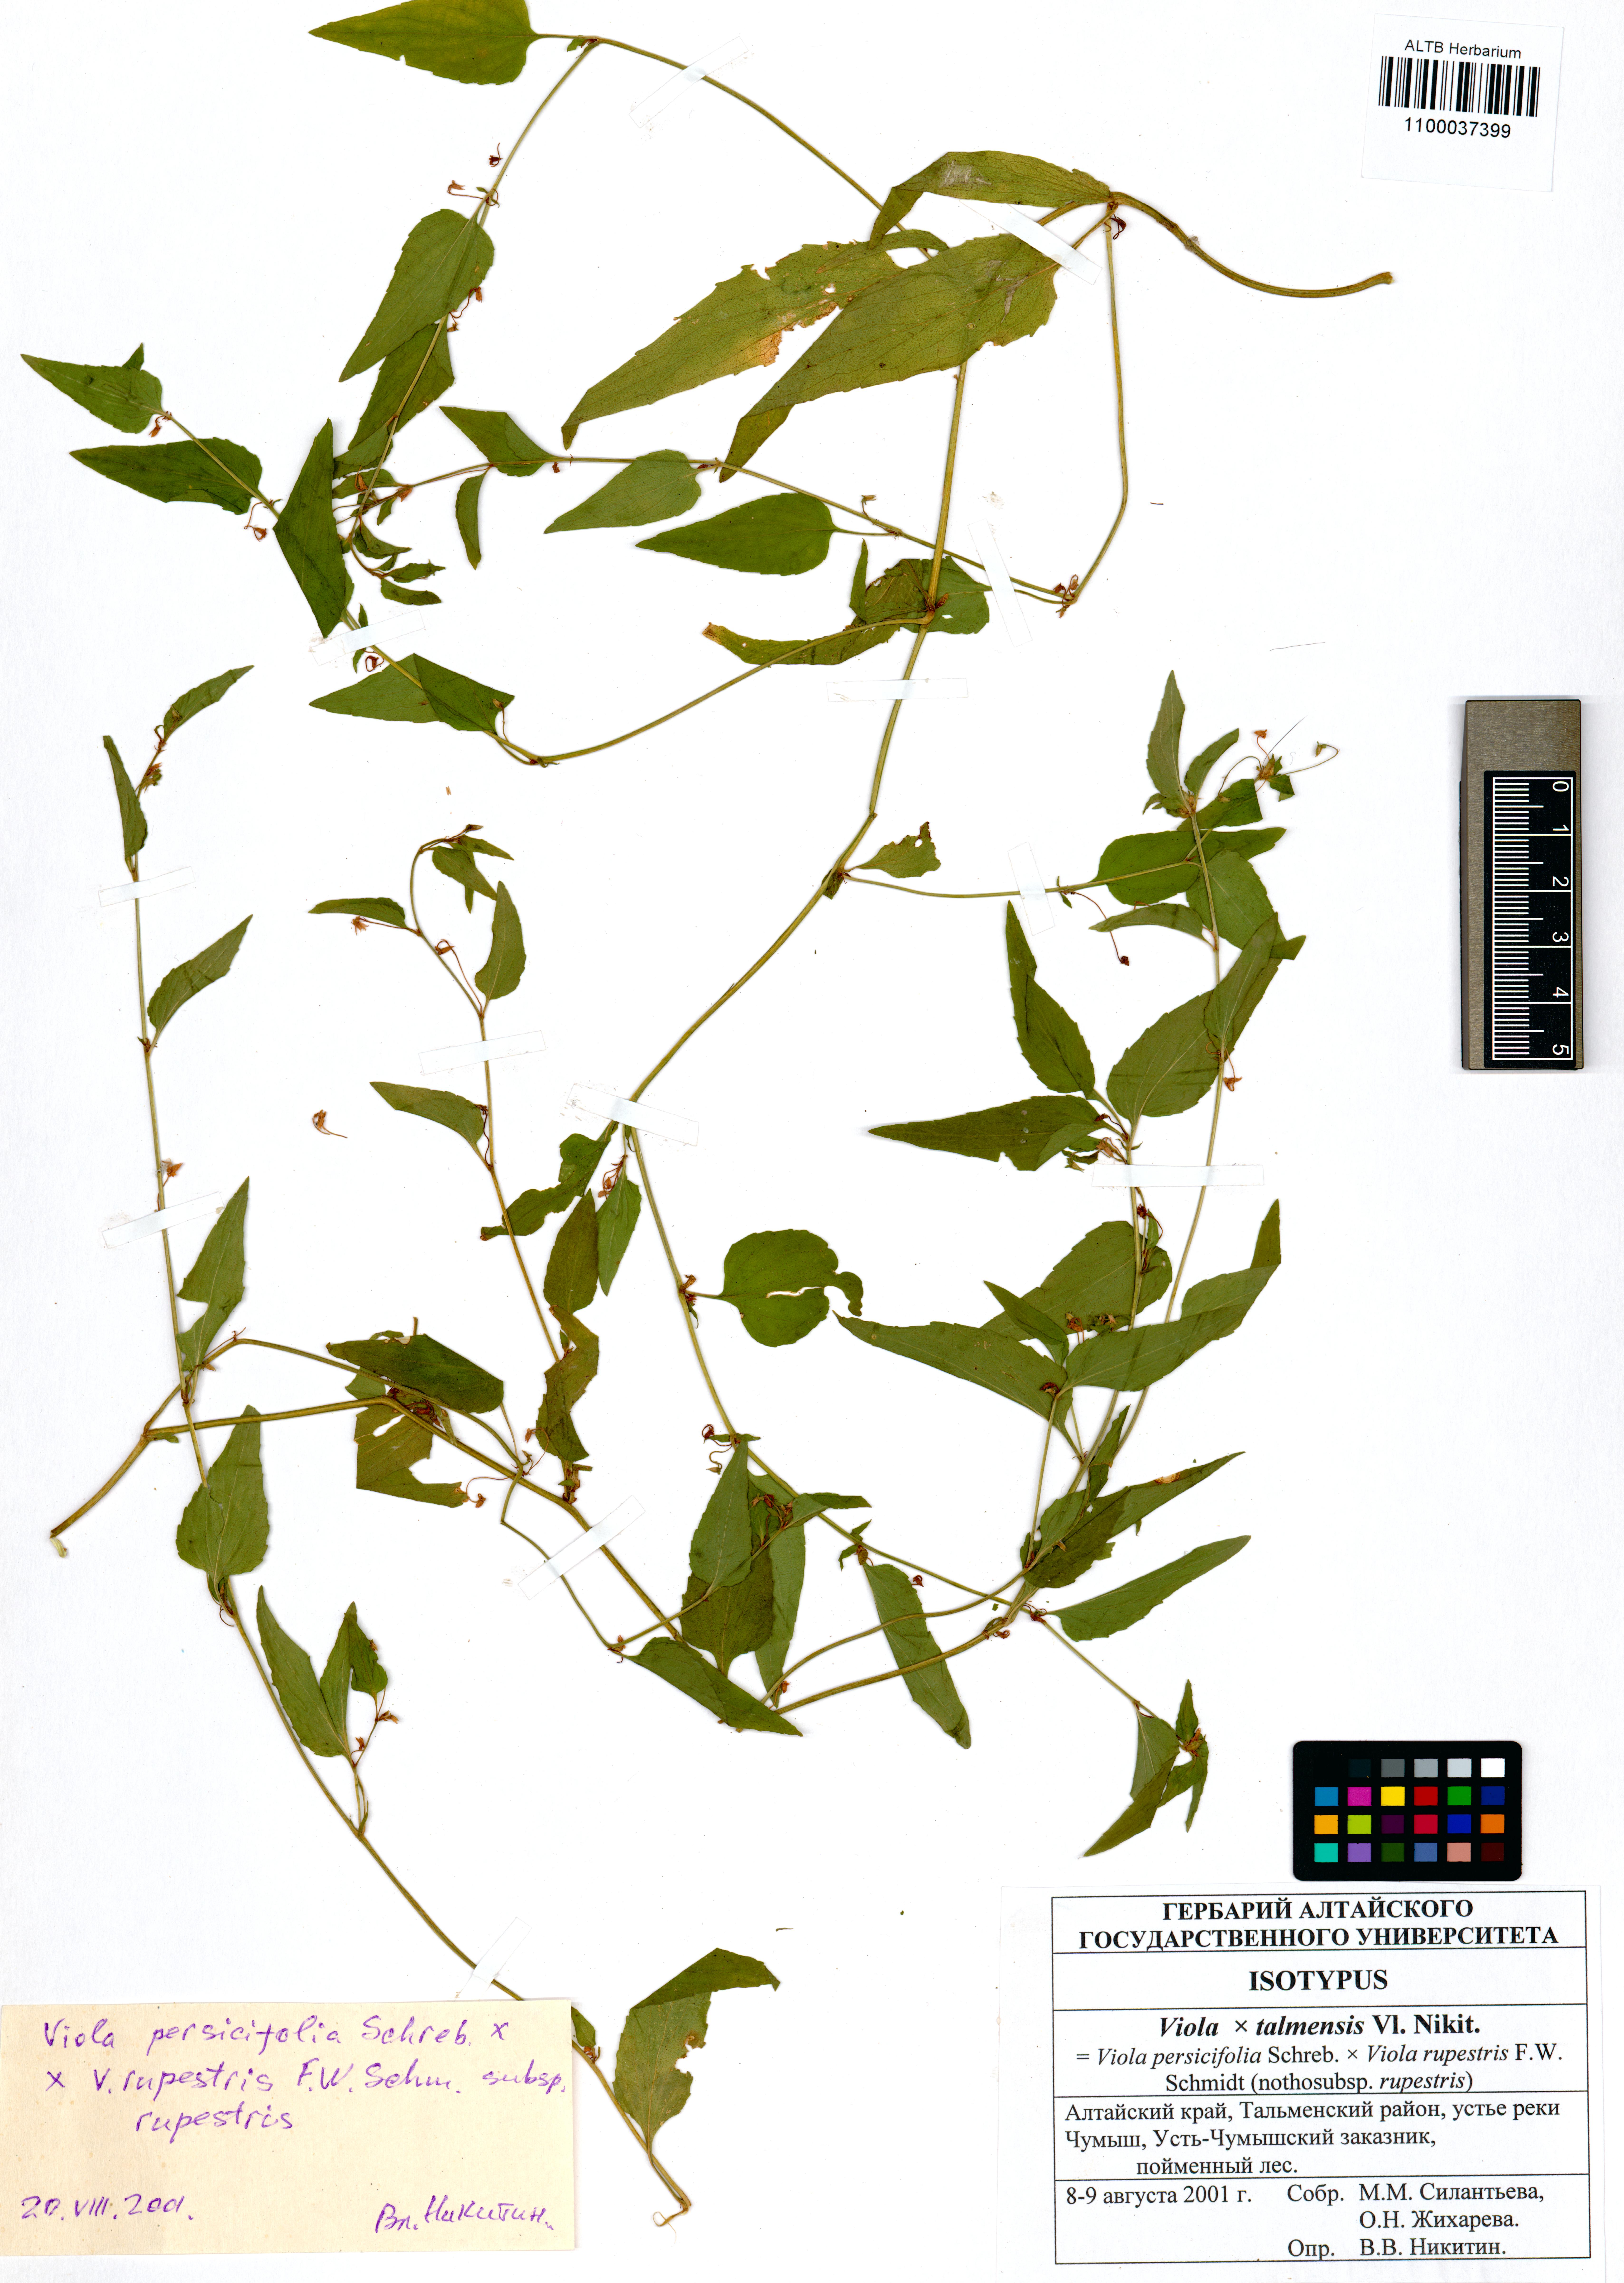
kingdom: Plantae
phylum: Tracheophyta
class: Magnoliopsida
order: Malpighiales
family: Violaceae
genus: Viola
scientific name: Viola vilnaensis
